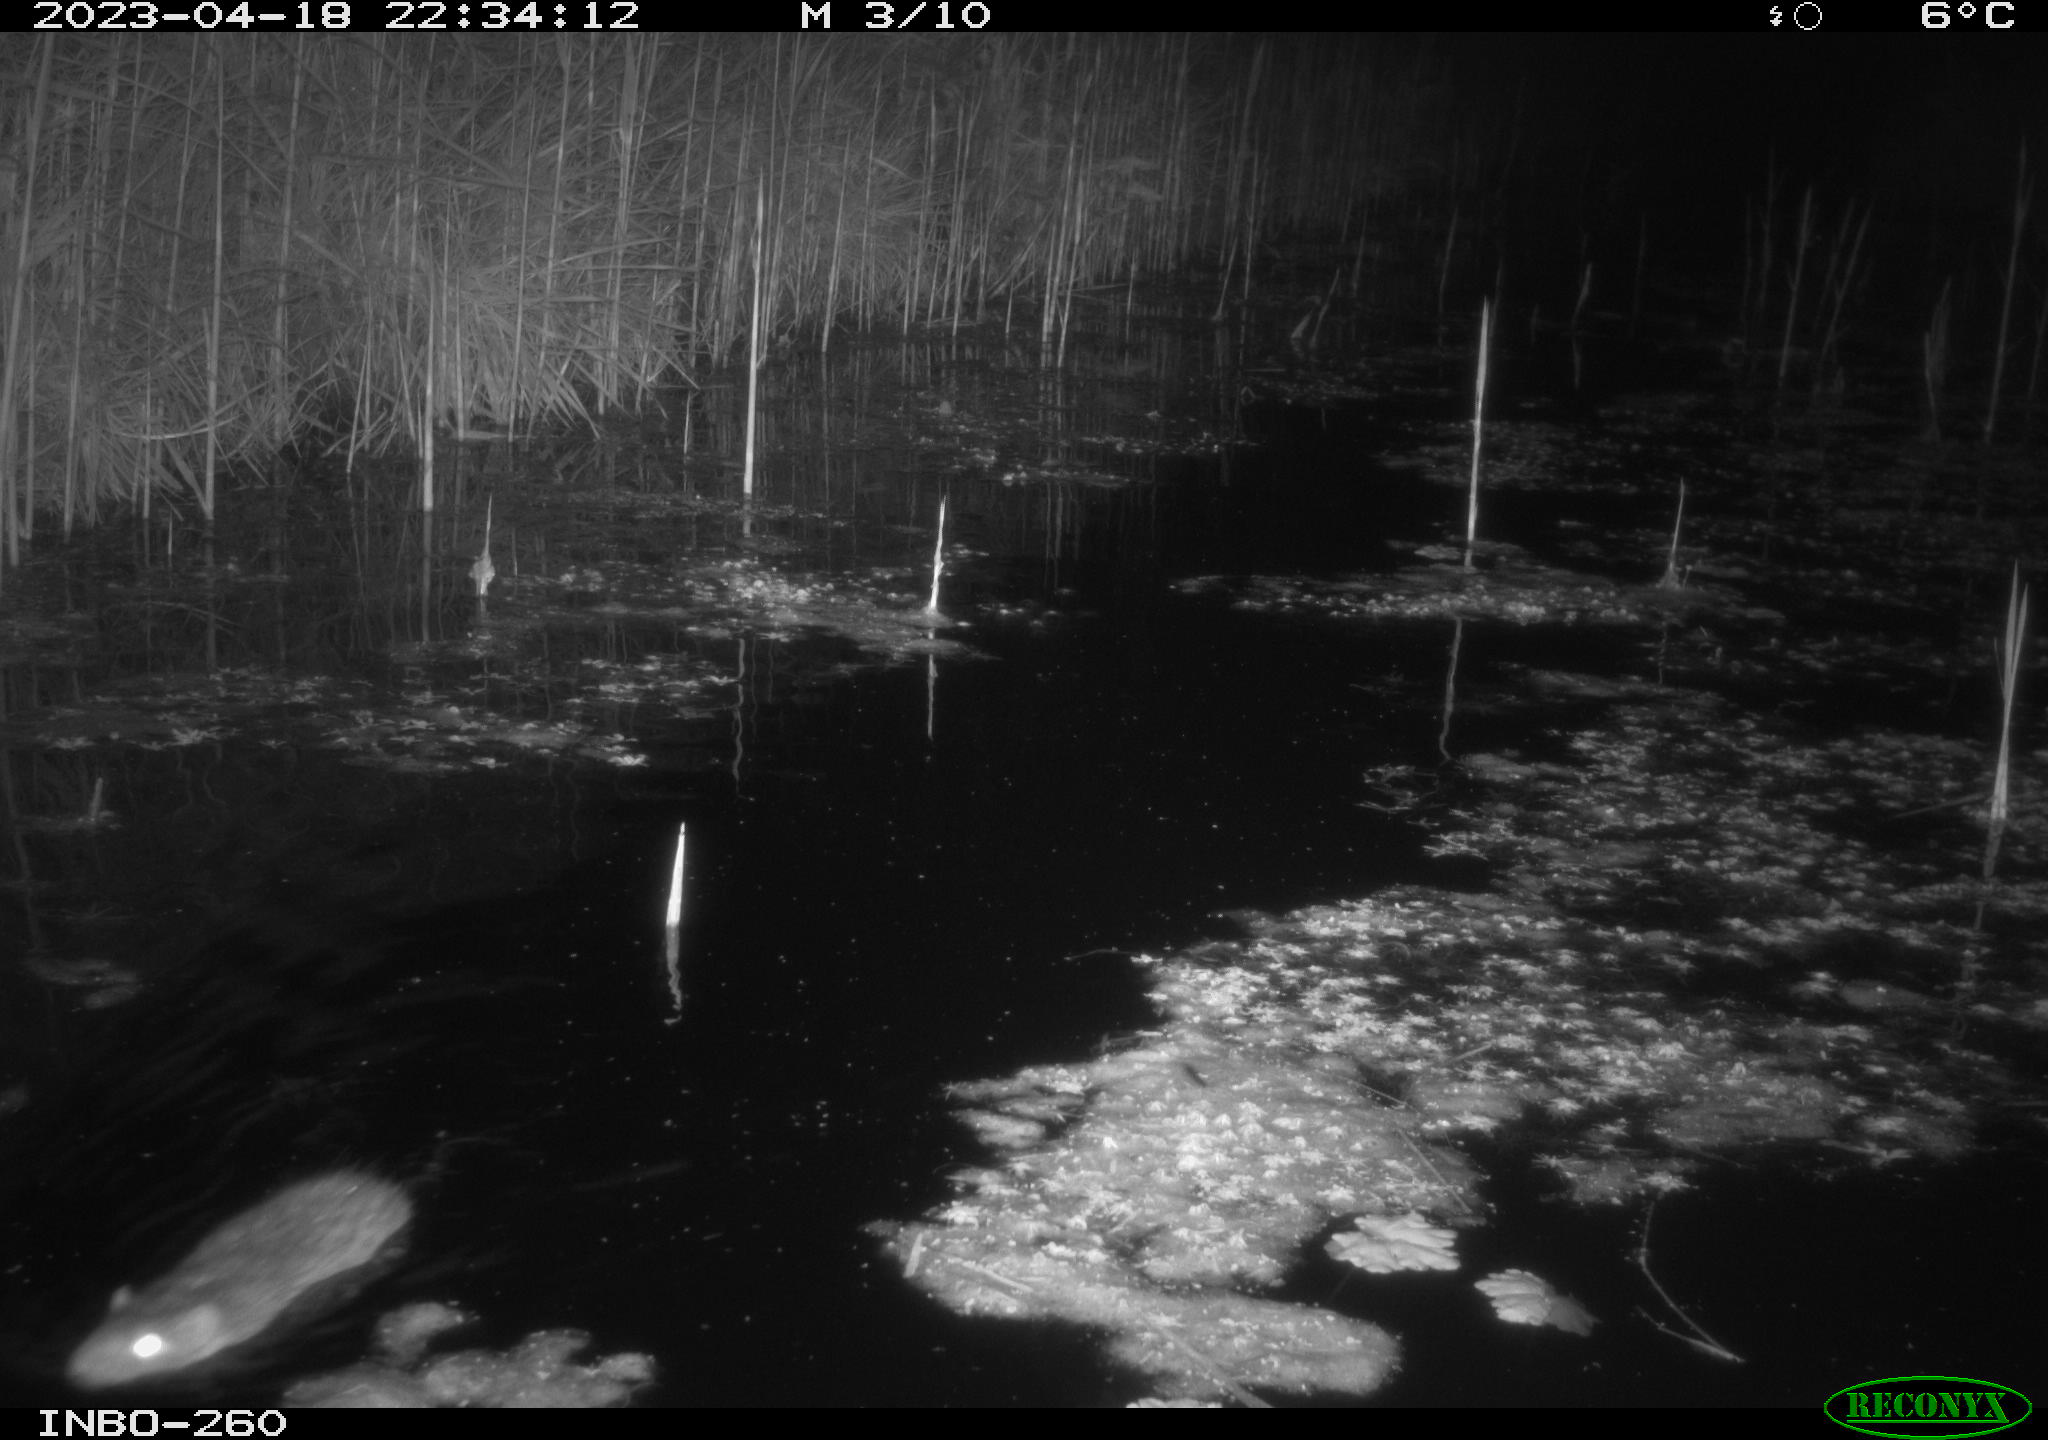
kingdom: Animalia
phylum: Chordata
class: Mammalia
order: Rodentia
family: Muridae
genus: Rattus
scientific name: Rattus norvegicus
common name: Brown rat
